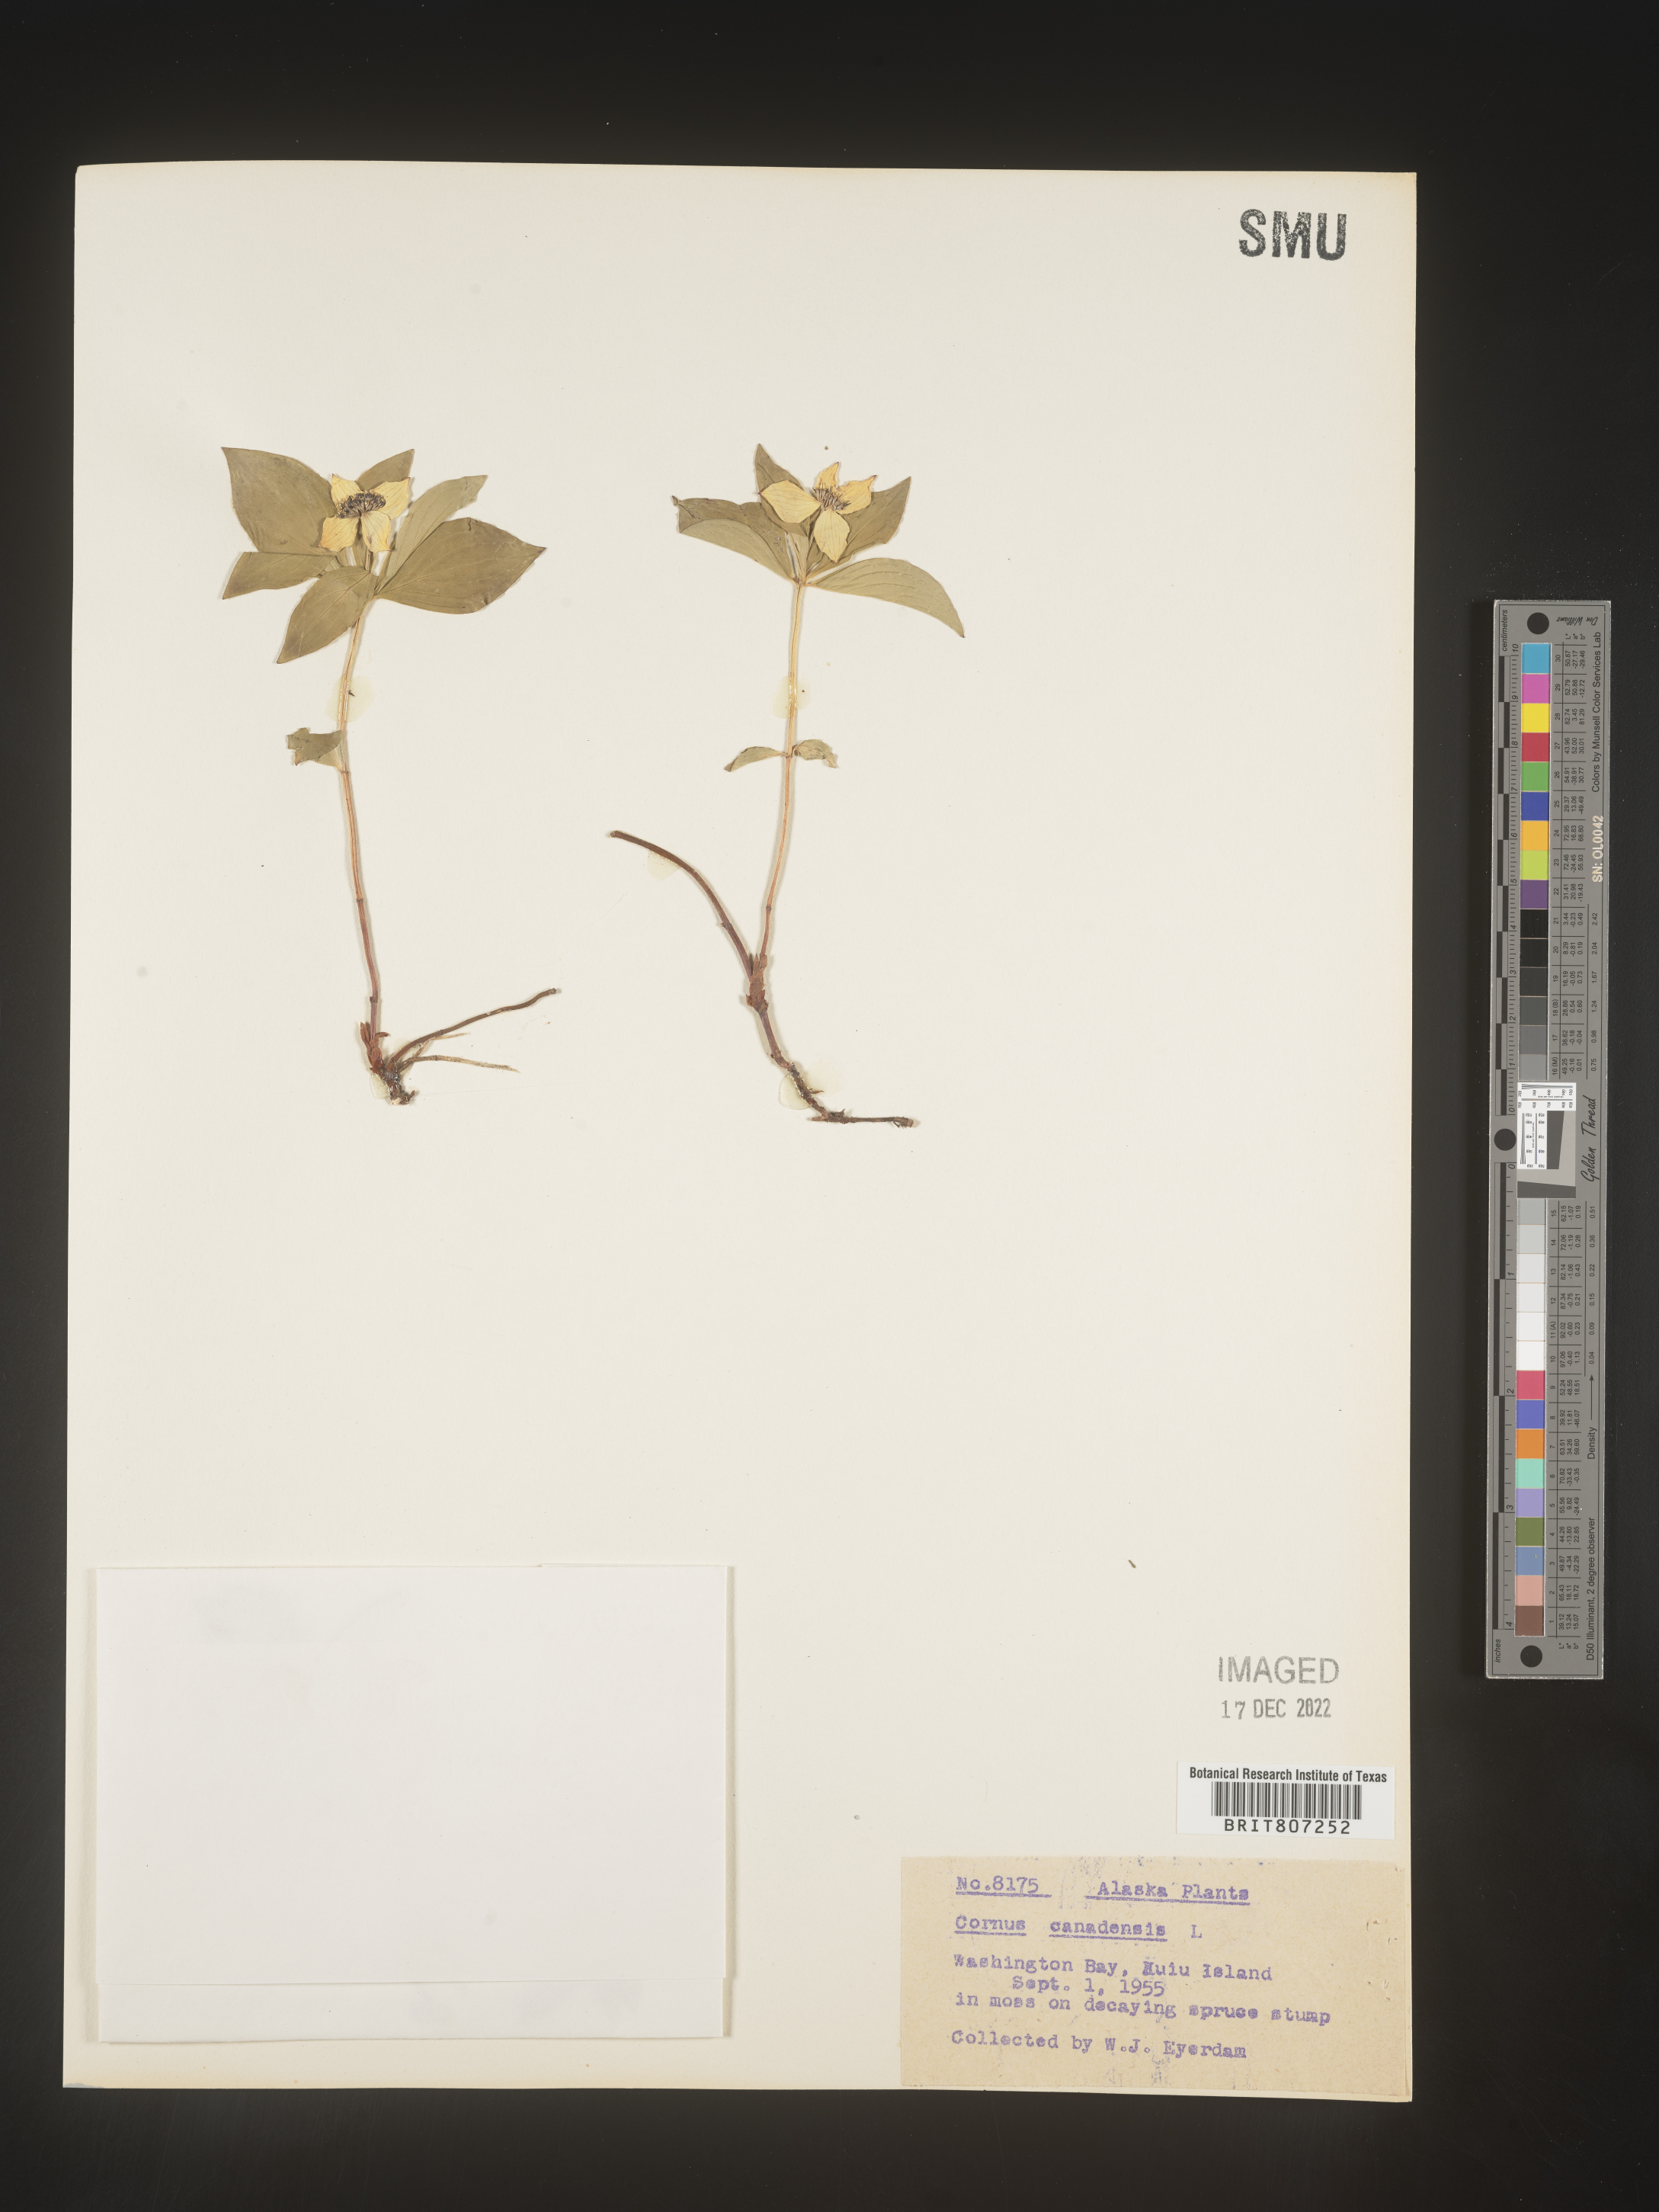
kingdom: Plantae
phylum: Tracheophyta
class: Magnoliopsida
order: Cornales
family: Cornaceae
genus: Cornus
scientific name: Cornus canadensis
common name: Creeping dogwood
